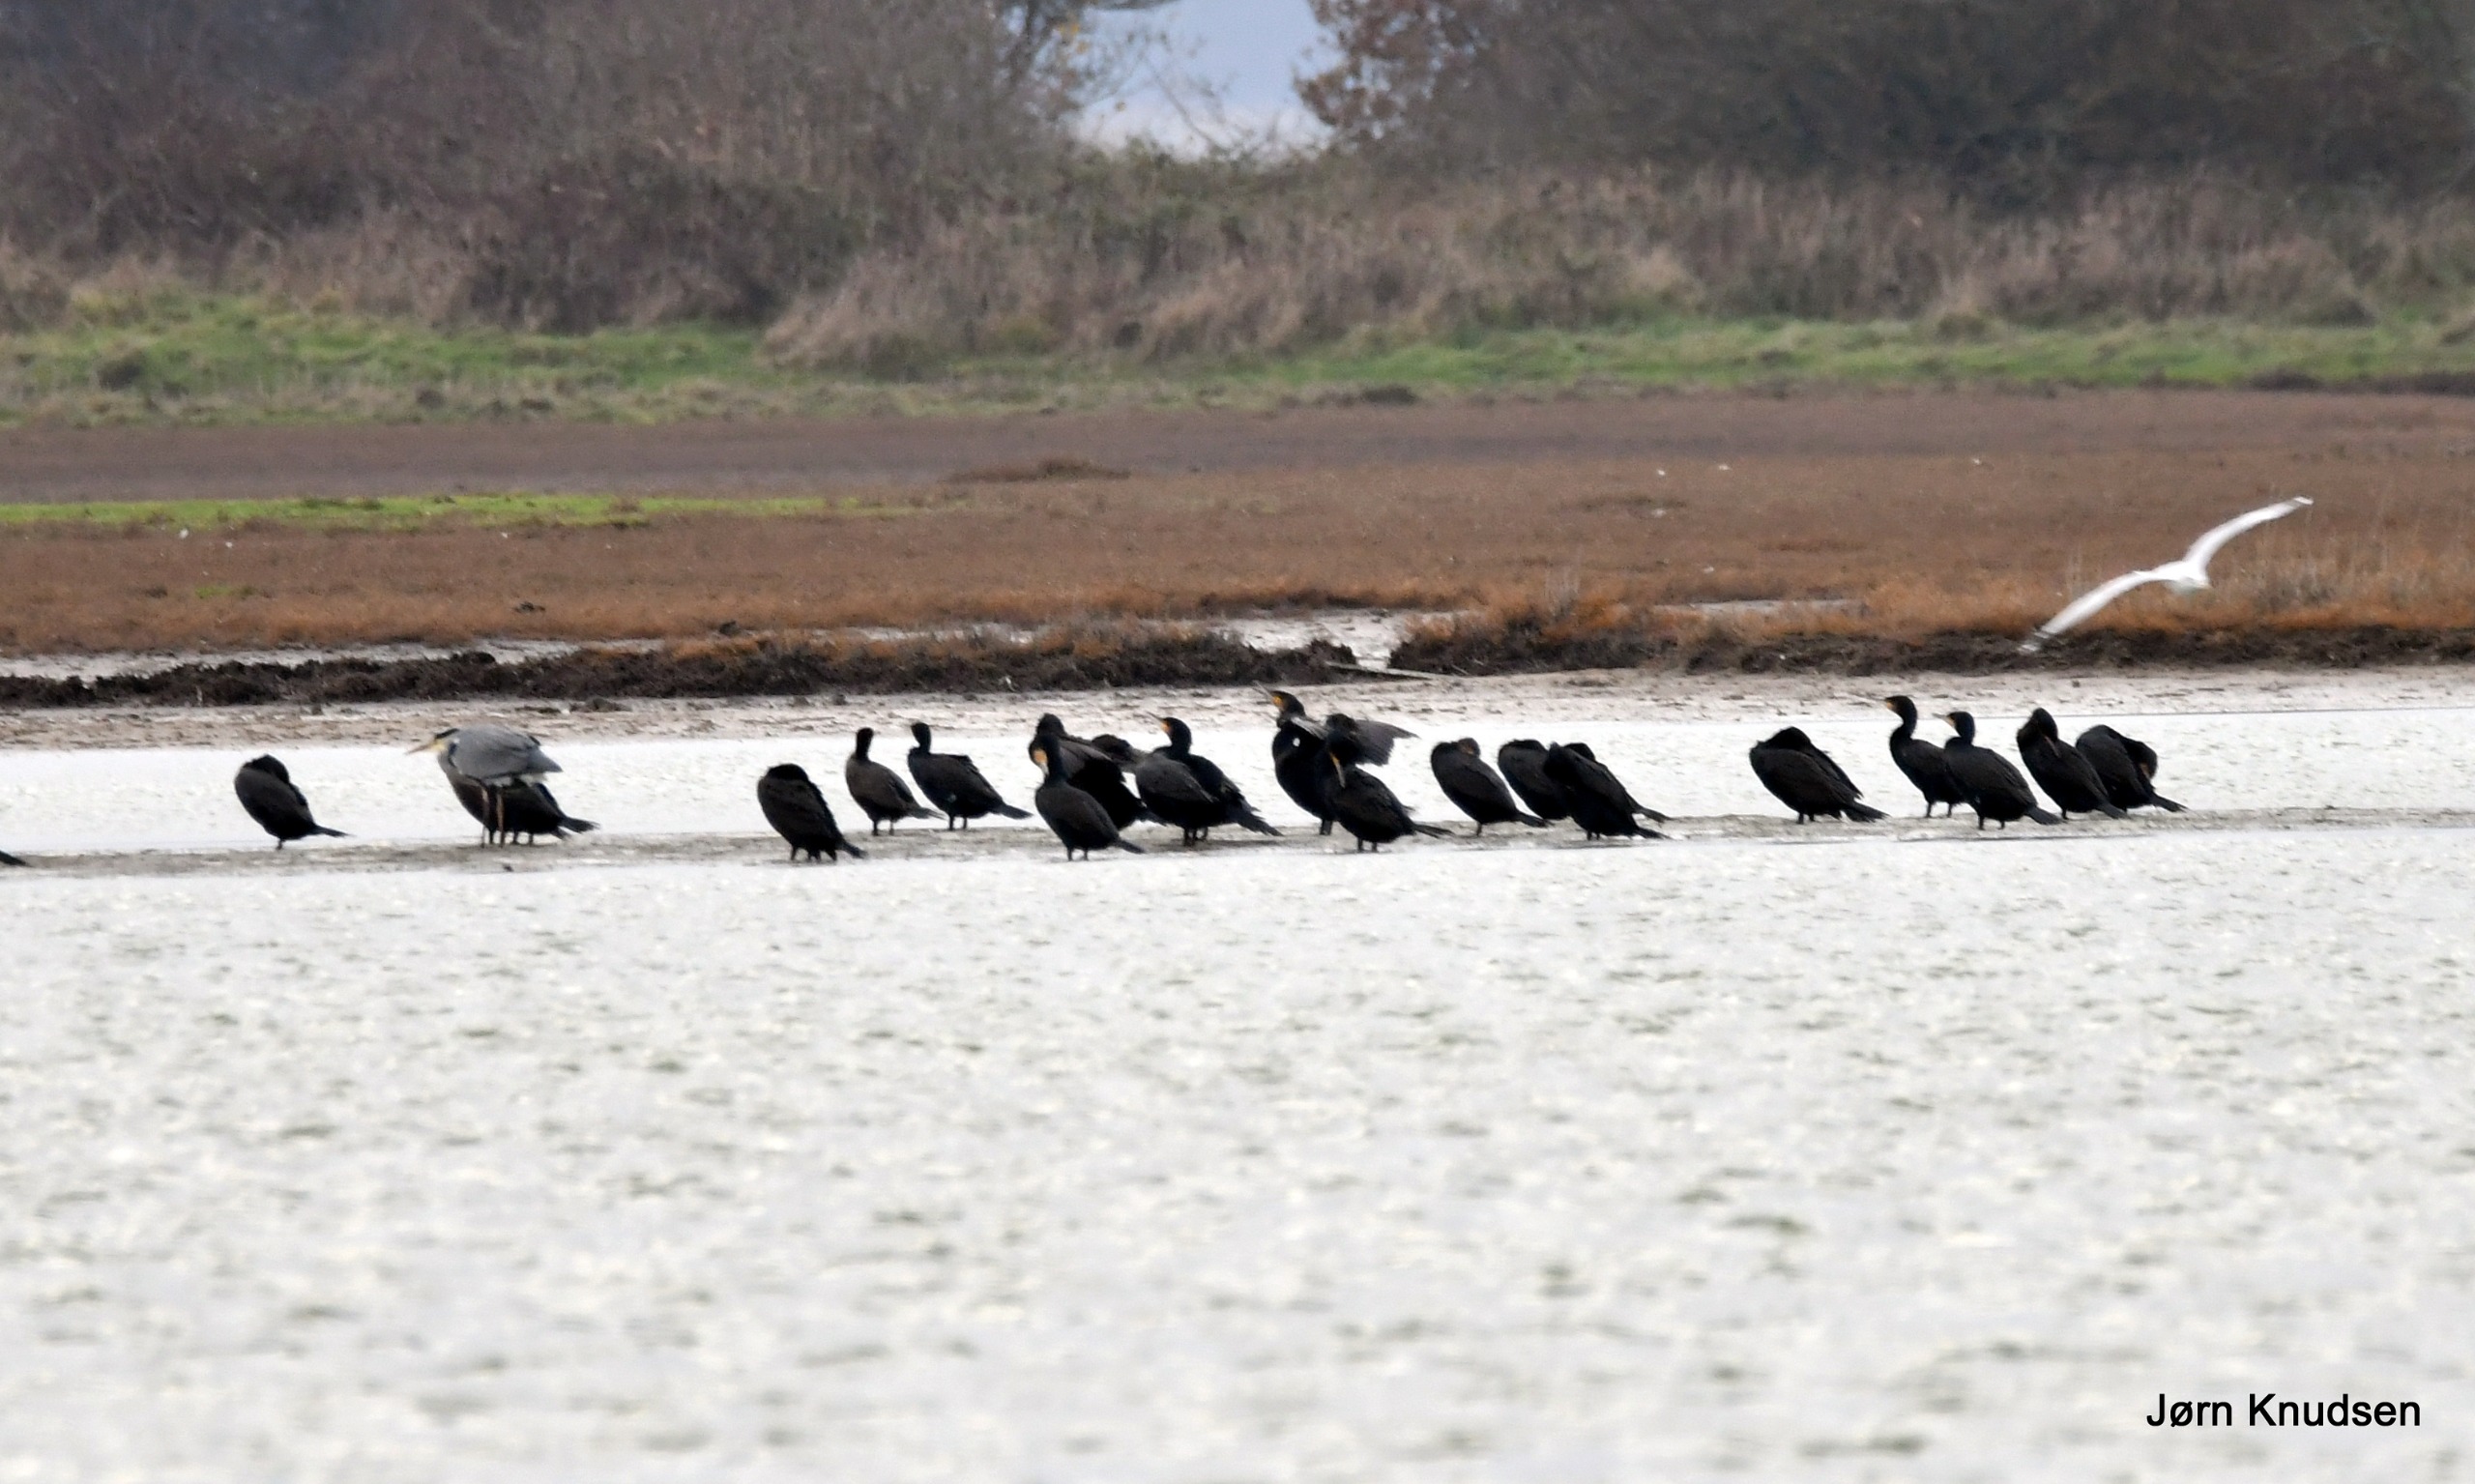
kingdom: Animalia
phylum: Chordata
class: Aves
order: Suliformes
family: Phalacrocoracidae
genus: Phalacrocorax
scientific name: Phalacrocorax carbo
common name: Skarv
